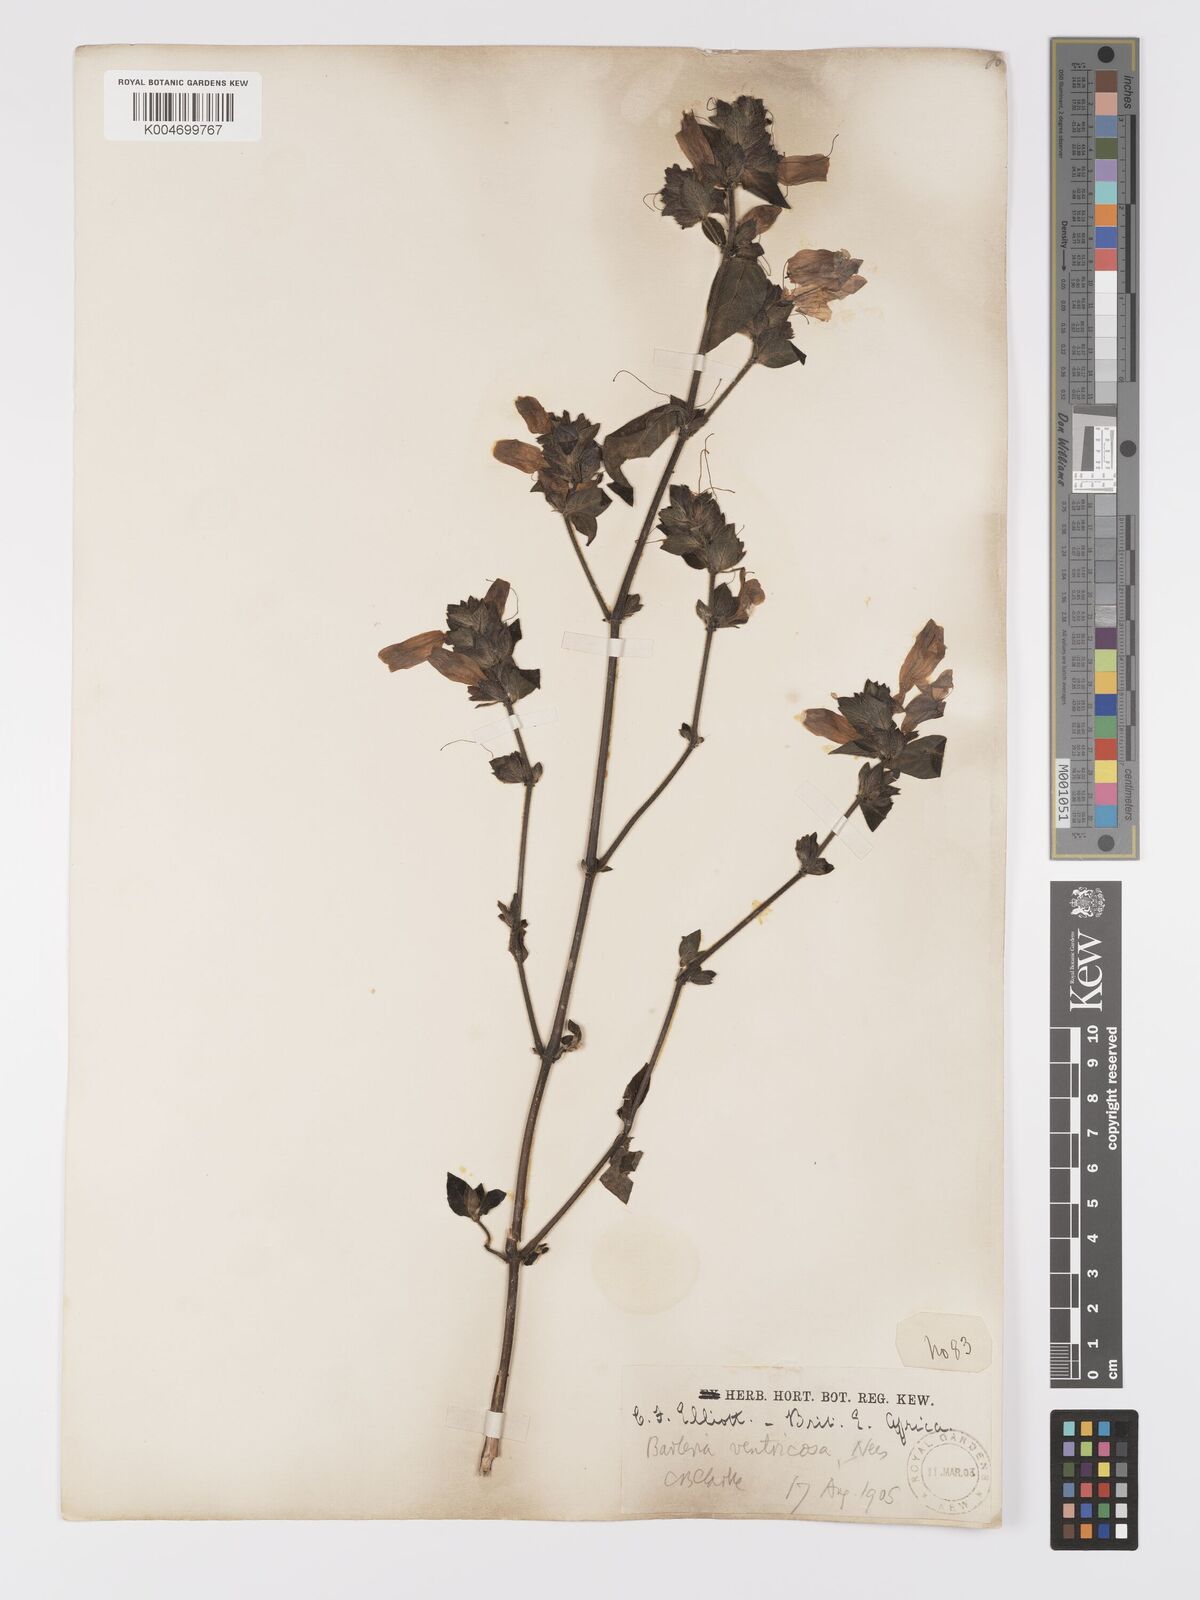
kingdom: Plantae
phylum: Tracheophyta
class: Magnoliopsida
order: Lamiales
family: Acanthaceae
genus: Barleria
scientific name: Barleria ventricosa
